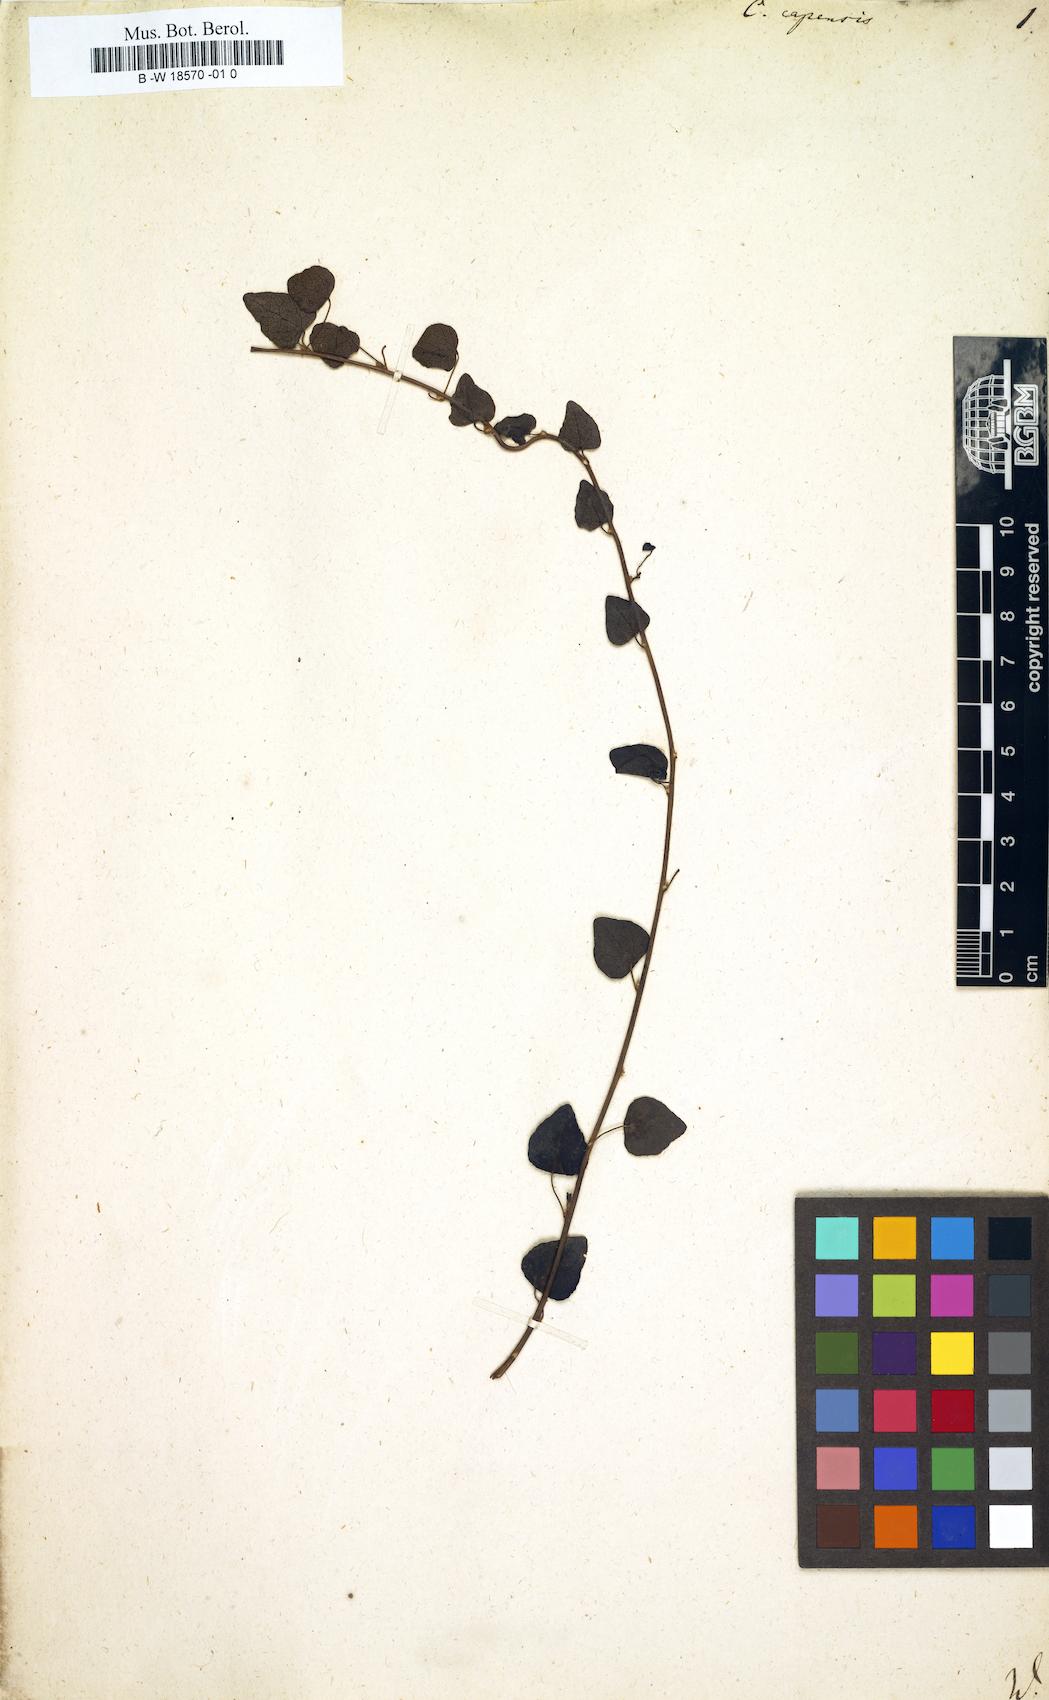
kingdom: Plantae
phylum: Tracheophyta
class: Magnoliopsida
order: Ranunculales
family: Menispermaceae
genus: Cissampelos
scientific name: Cissampelos capensis
